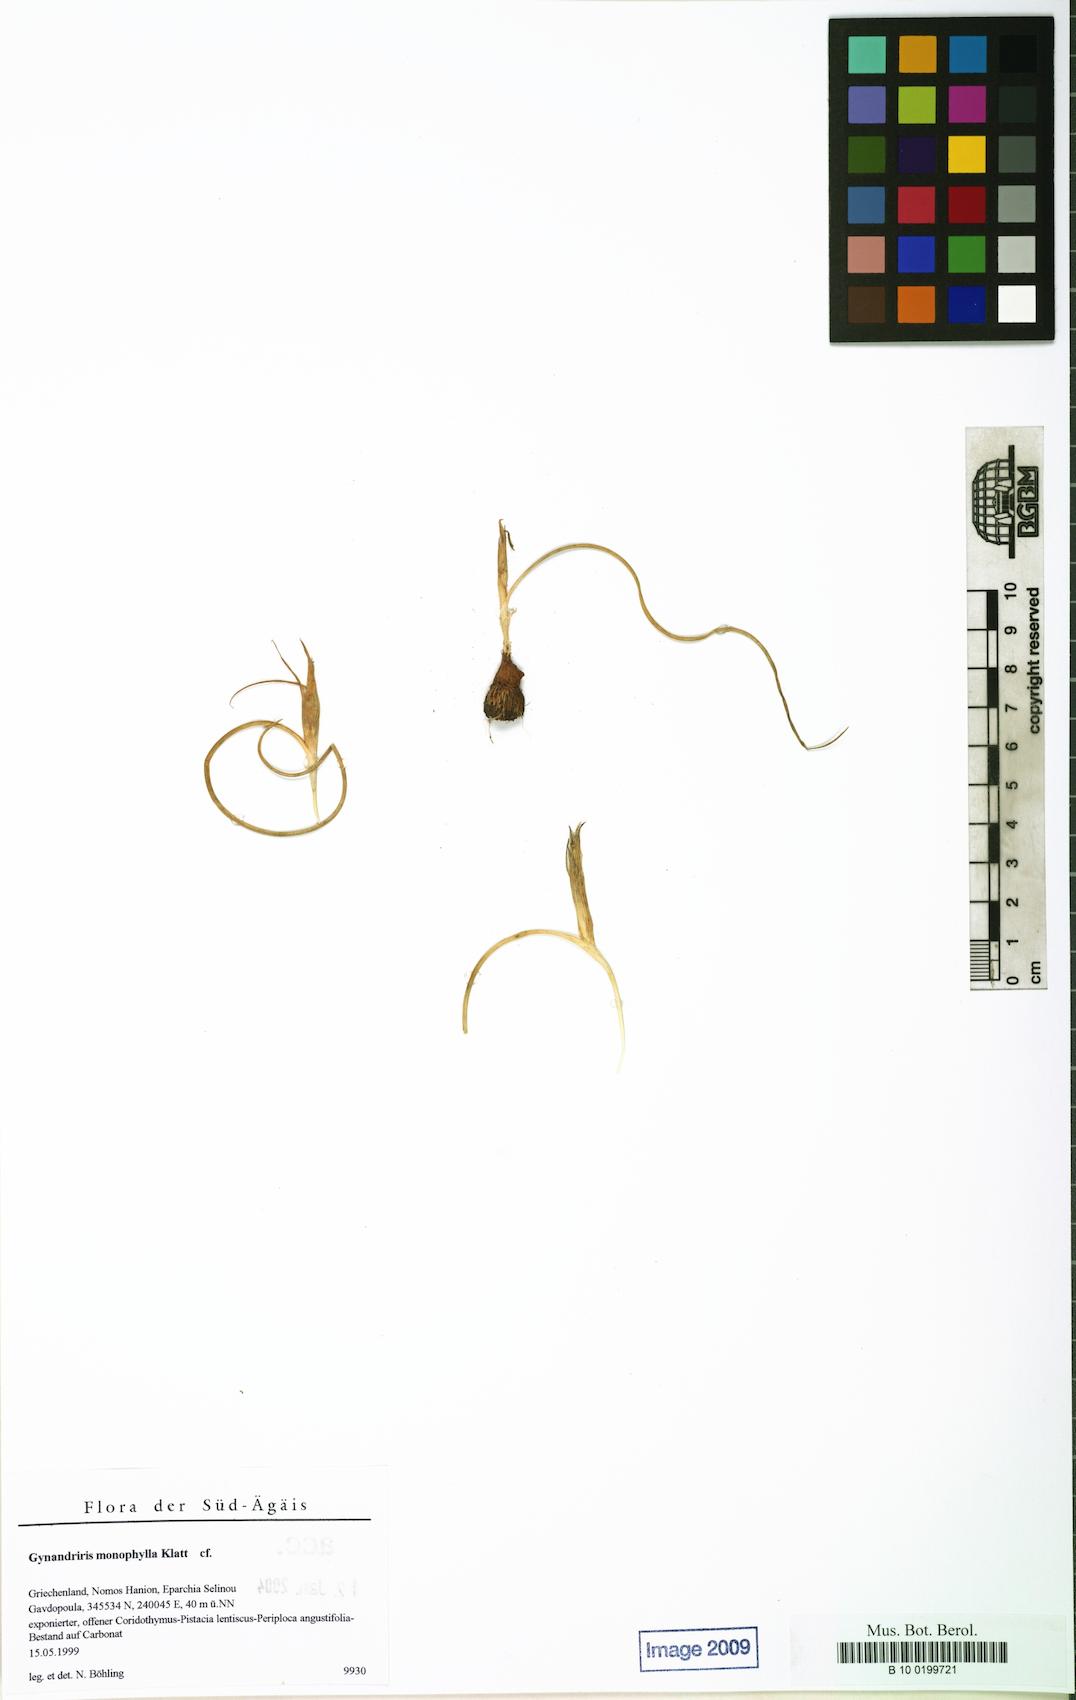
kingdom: Plantae
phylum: Tracheophyta
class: Liliopsida
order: Asparagales
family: Iridaceae
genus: Moraea
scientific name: Moraea mediterranea
